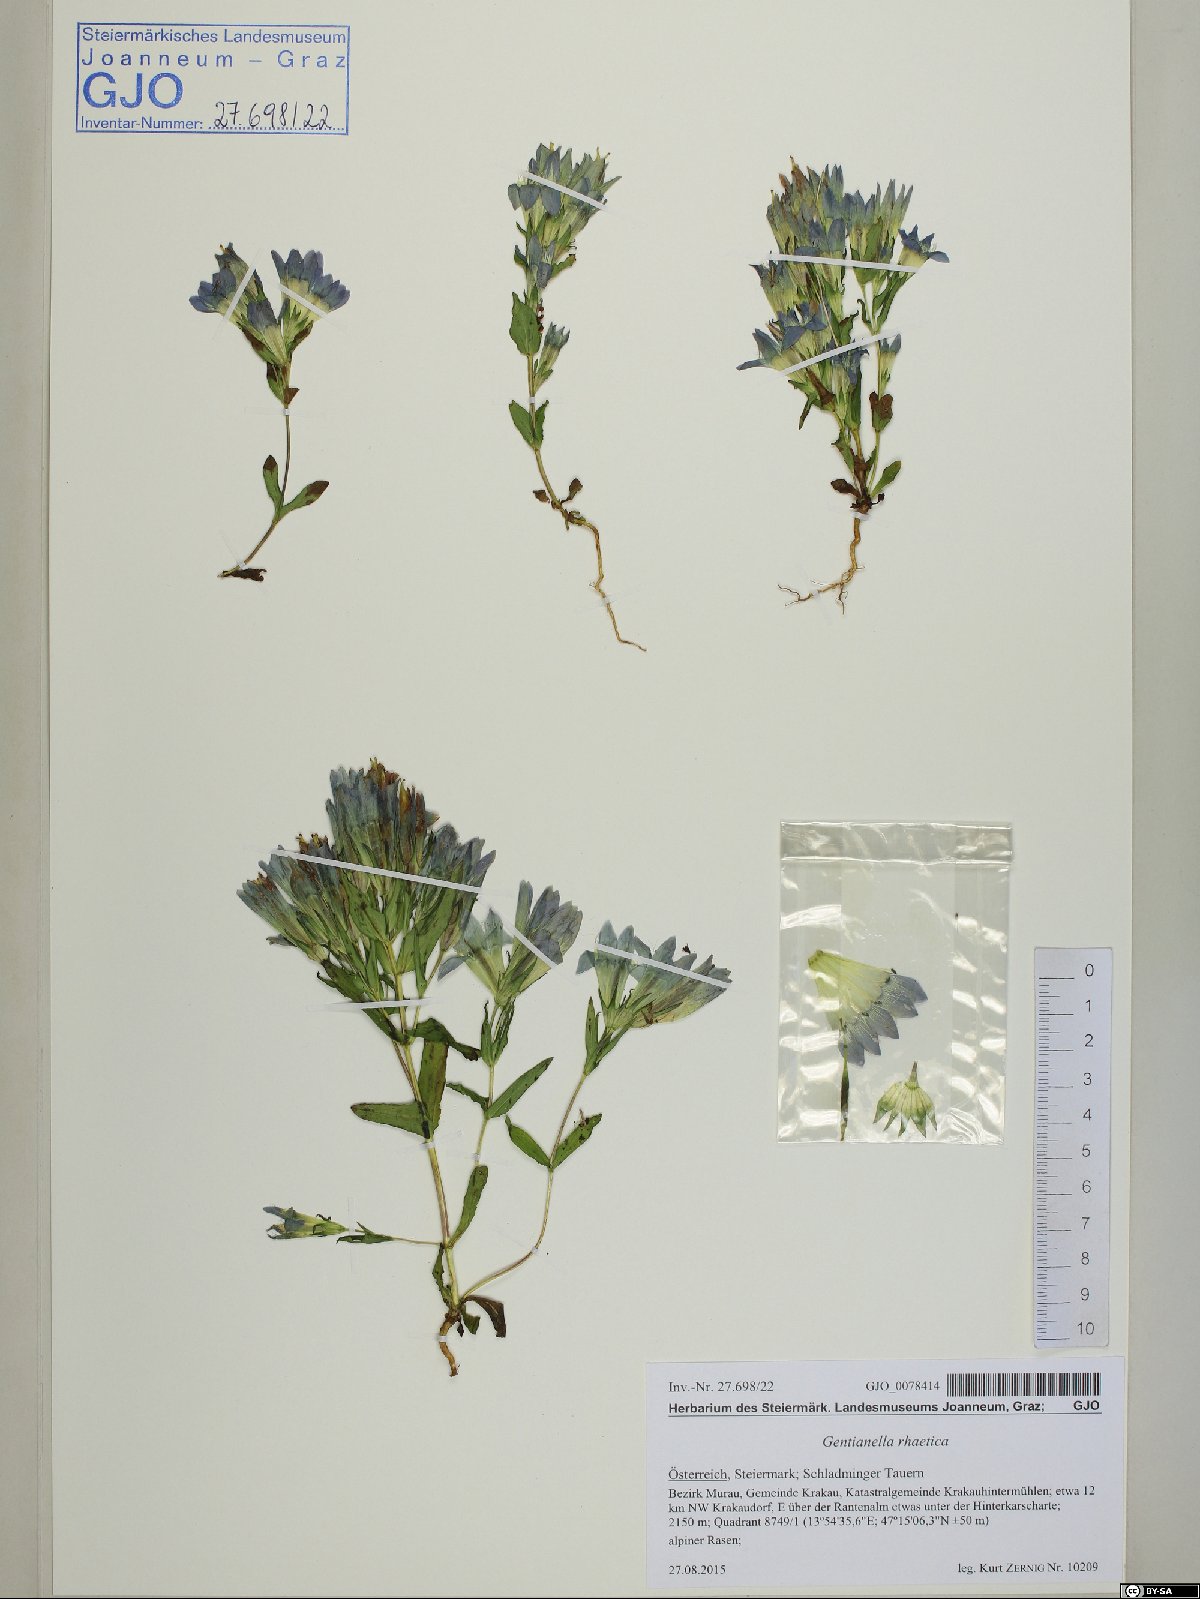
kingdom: Plantae
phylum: Tracheophyta
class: Magnoliopsida
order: Gentianales
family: Gentianaceae
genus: Gentianella
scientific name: Gentianella rhaetica
